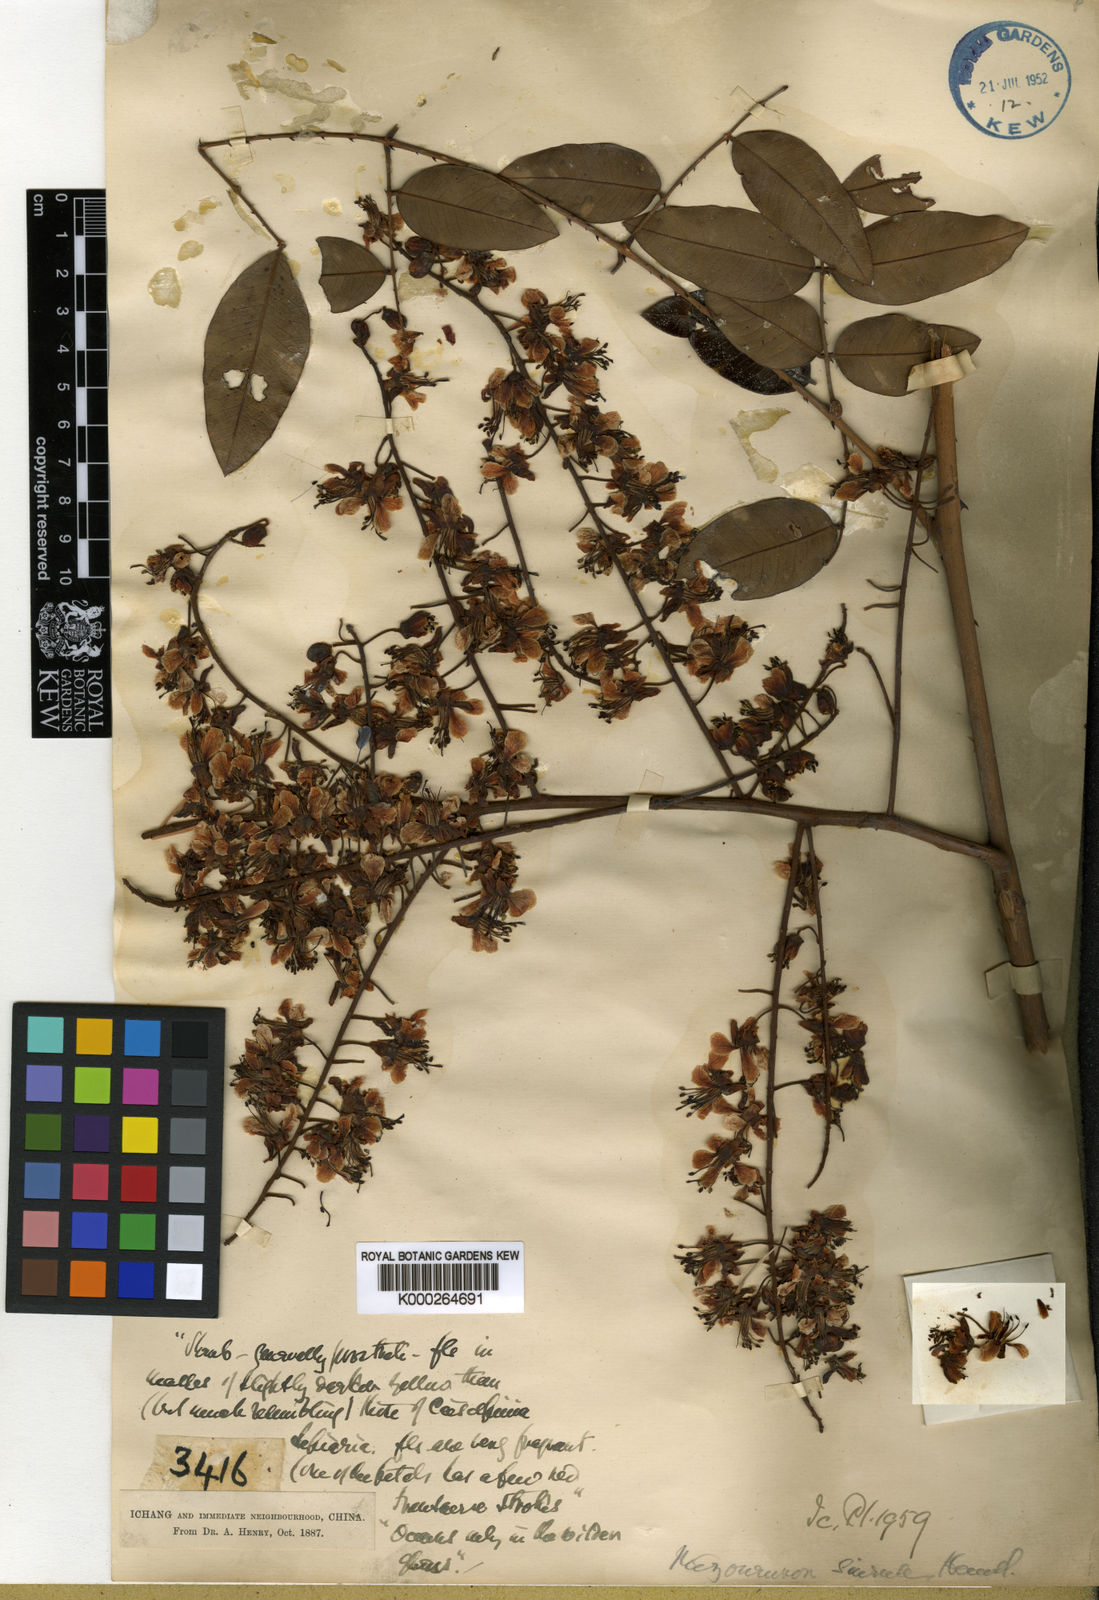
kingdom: Plantae
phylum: Tracheophyta
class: Magnoliopsida
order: Fabales
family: Fabaceae
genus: Mezoneuron
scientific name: Mezoneuron sinense
